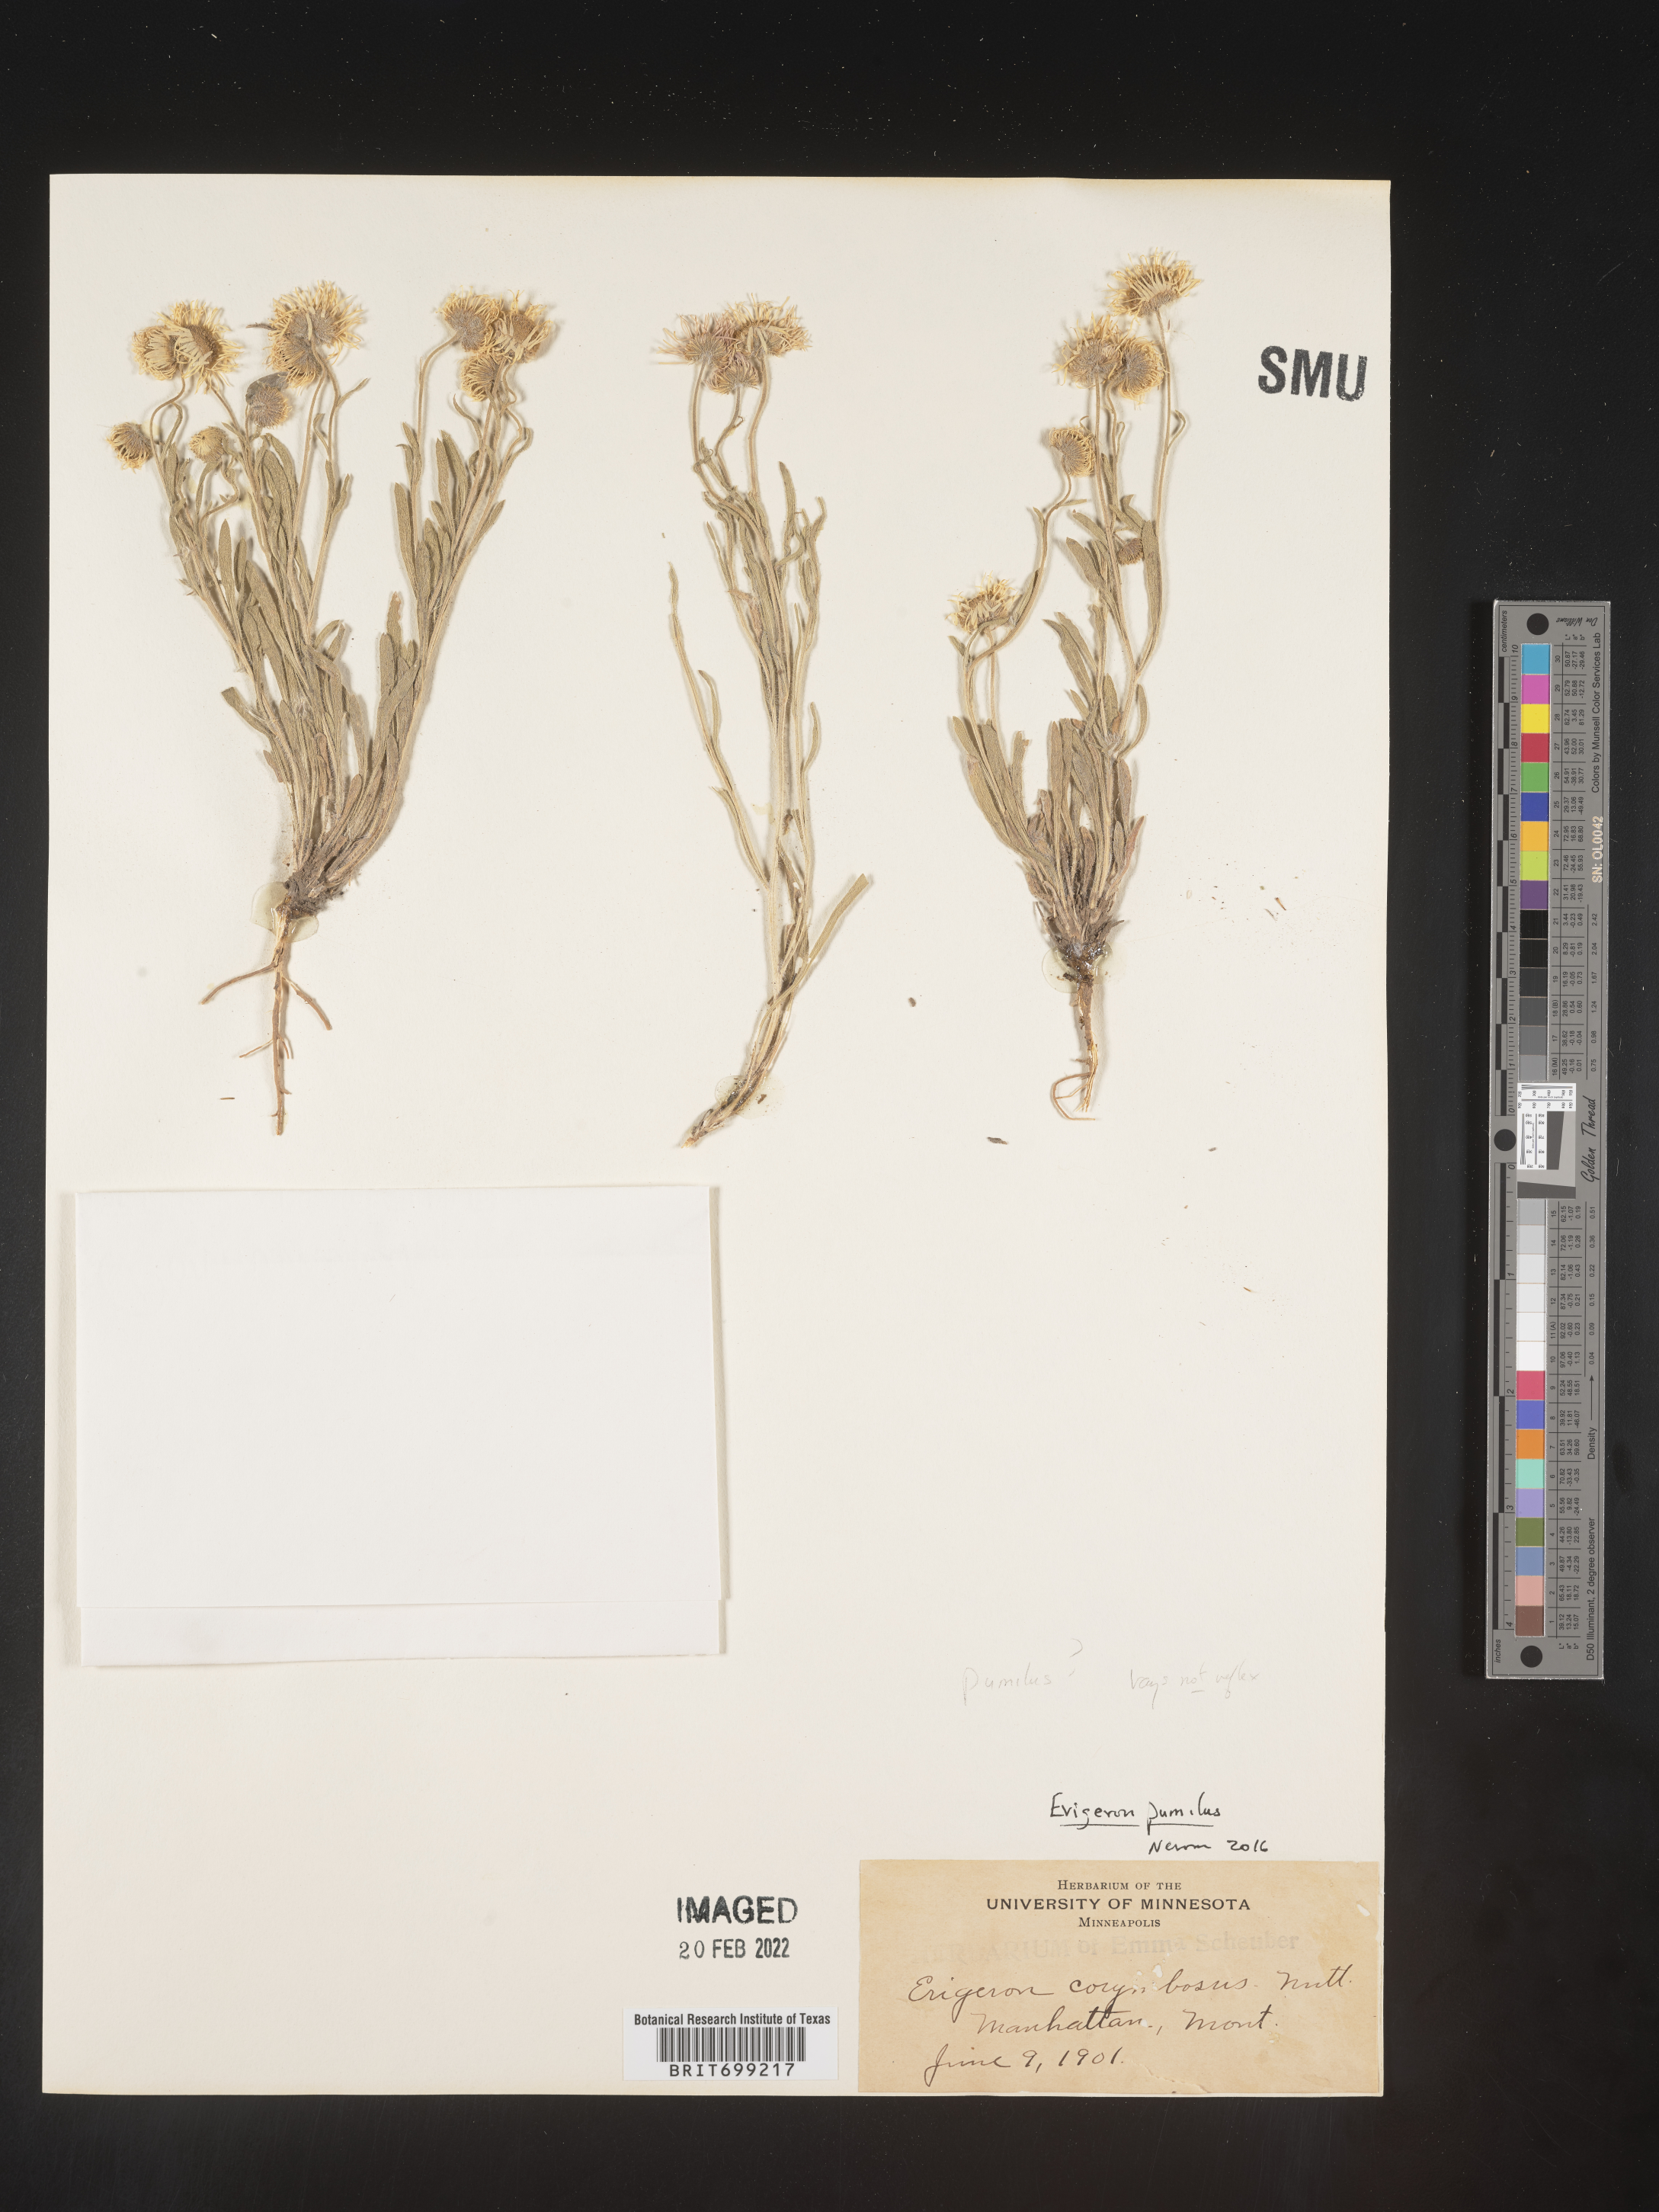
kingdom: Plantae
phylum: Tracheophyta
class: Magnoliopsida
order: Asterales
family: Asteraceae
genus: Erigeron
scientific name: Erigeron pumilus
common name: Shaggy fleabane
